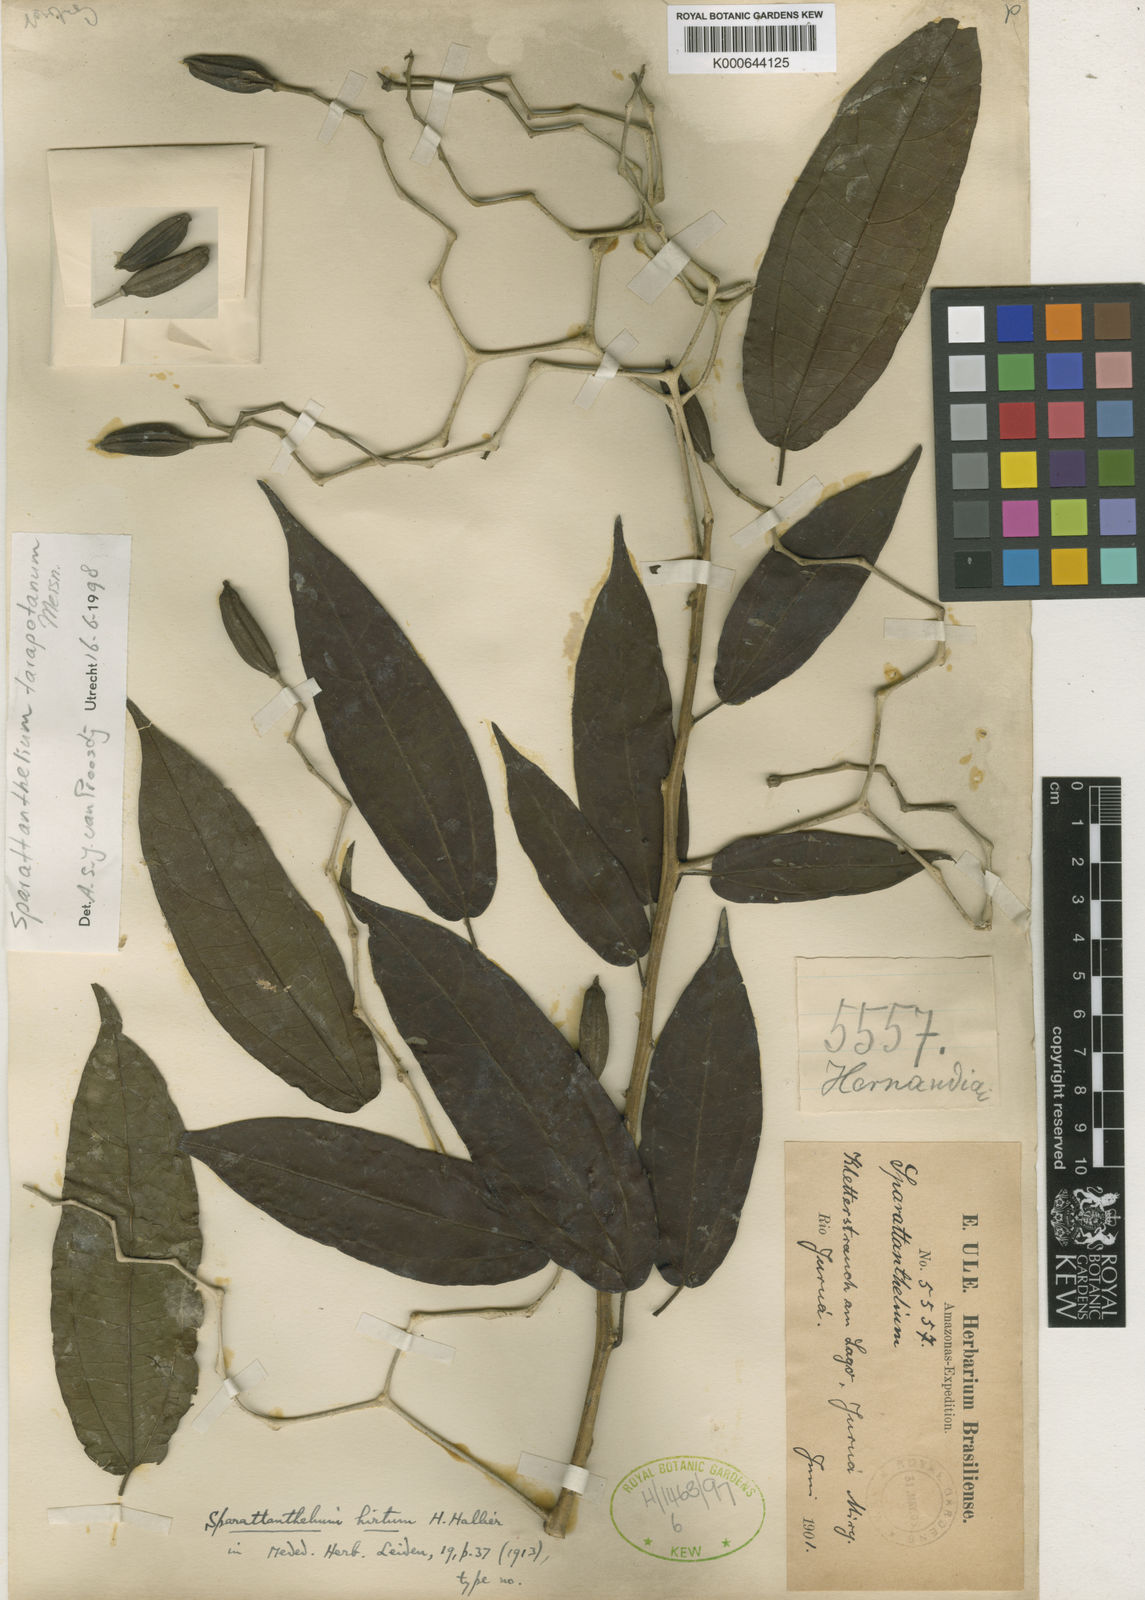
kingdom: Plantae
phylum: Tracheophyta
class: Magnoliopsida
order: Laurales
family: Hernandiaceae
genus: Sparattanthelium
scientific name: Sparattanthelium tarapotanum
